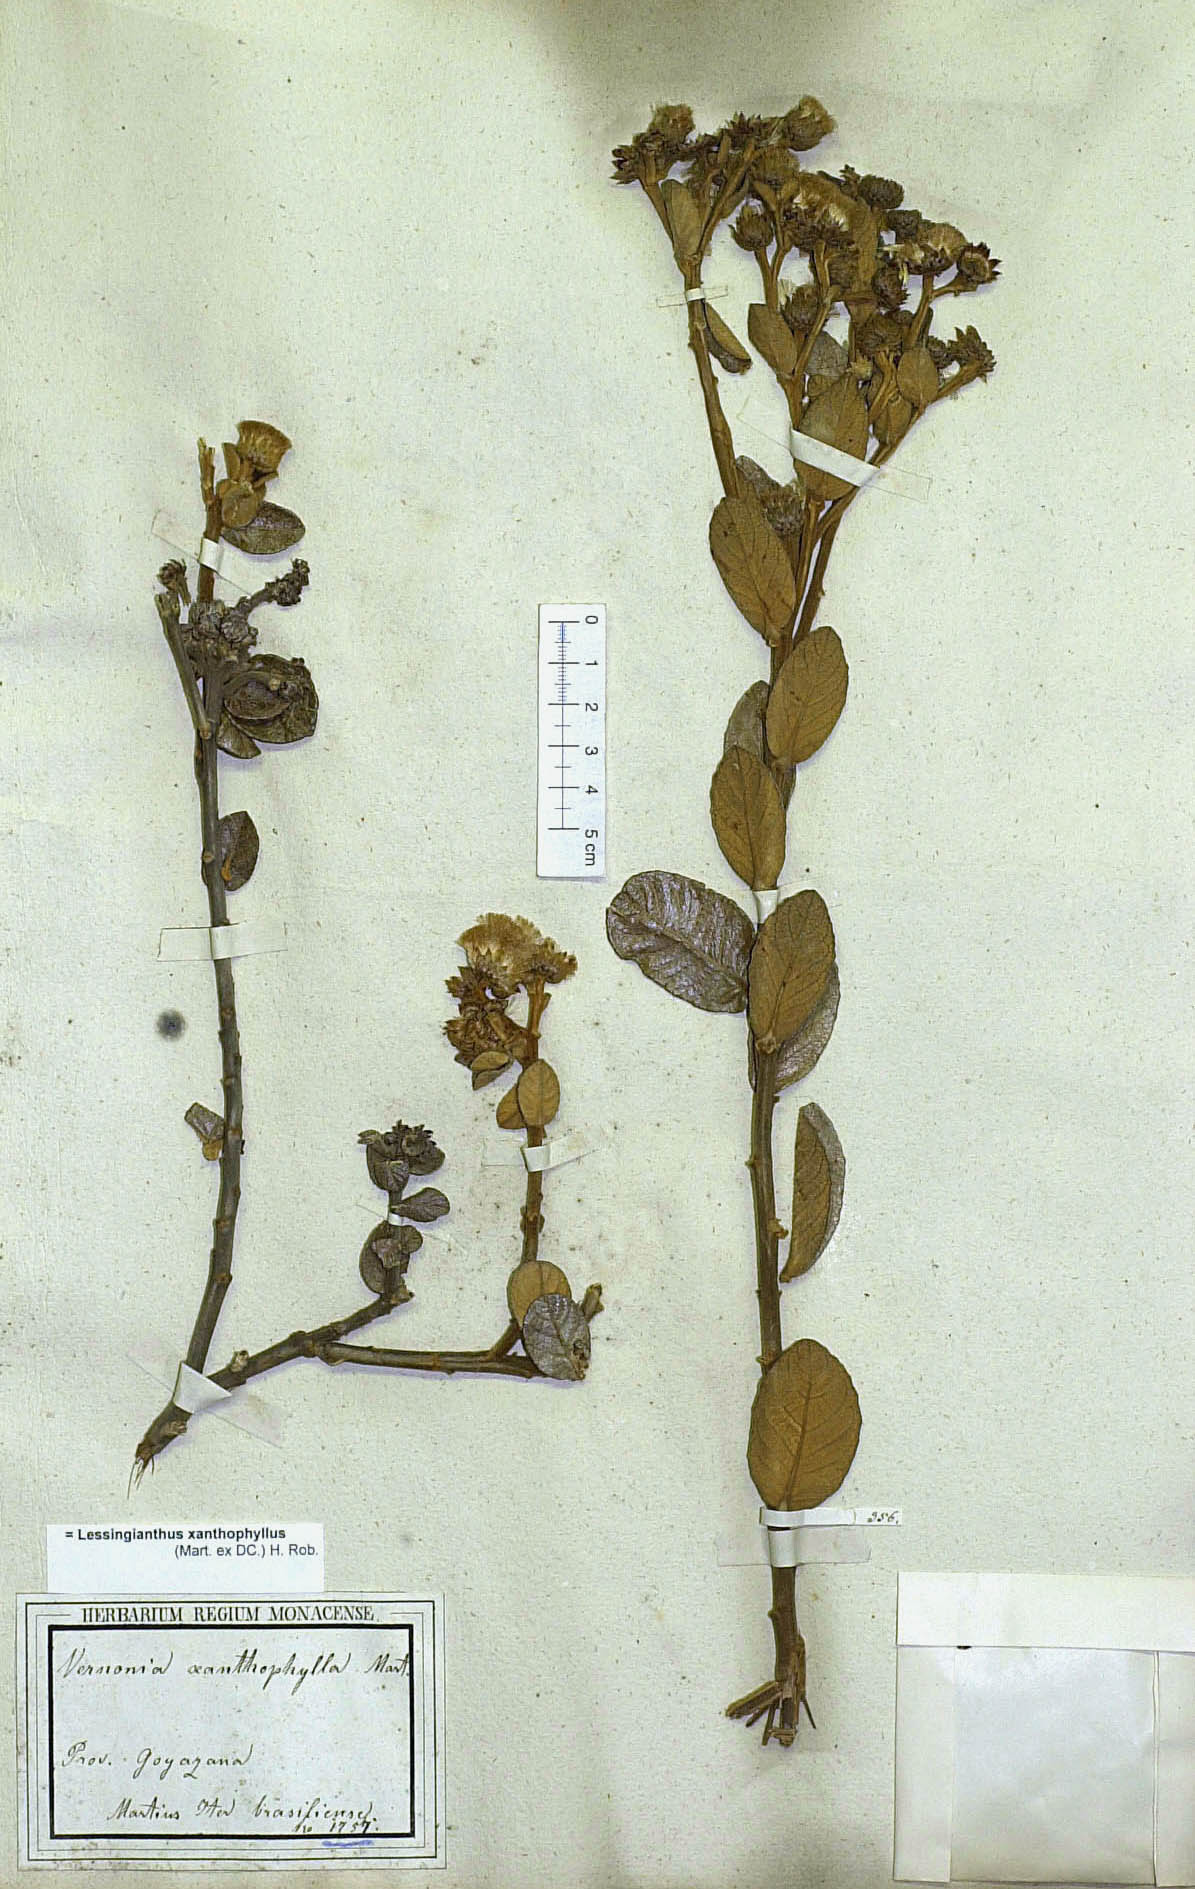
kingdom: Plantae
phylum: Tracheophyta
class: Magnoliopsida
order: Asterales
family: Asteraceae
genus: Lessingianthus
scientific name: Lessingianthus xanthophyllus
